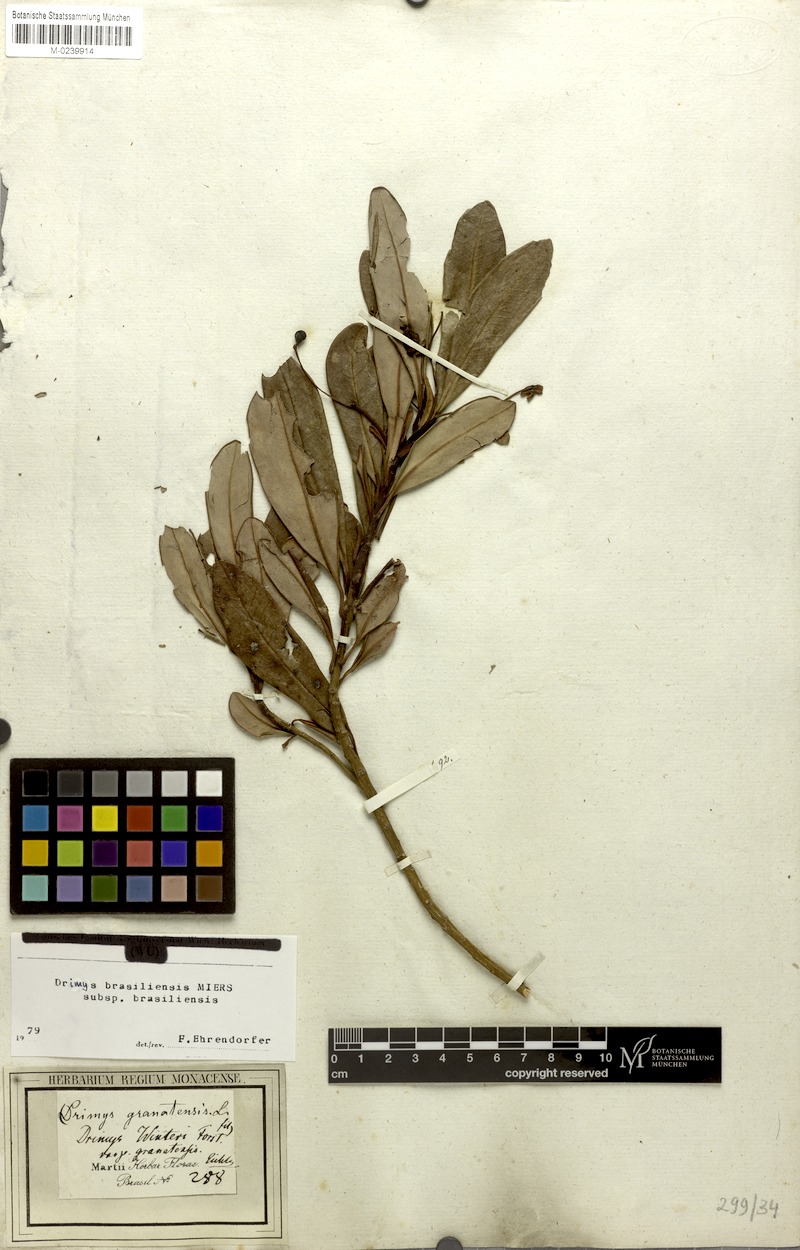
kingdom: Plantae
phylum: Tracheophyta
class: Magnoliopsida
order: Canellales
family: Winteraceae
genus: Drimys
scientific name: Drimys brasiliensis
